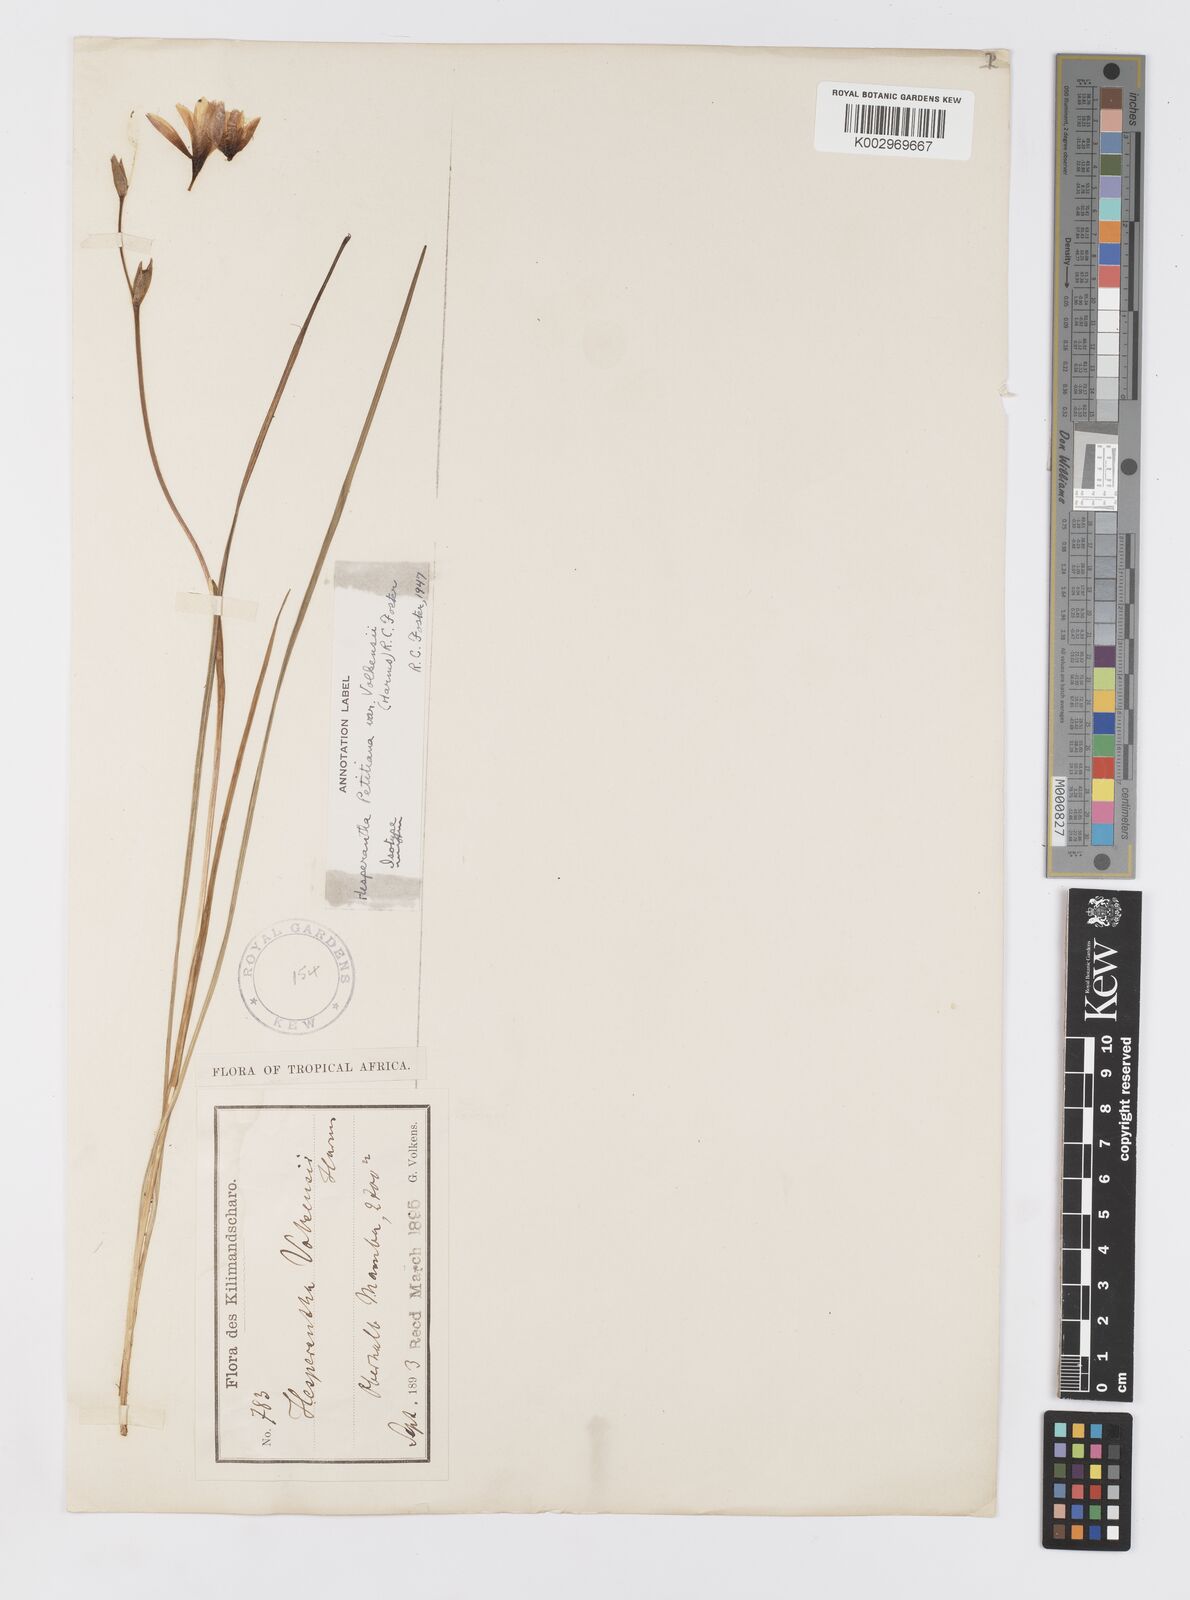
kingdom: Plantae
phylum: Tracheophyta
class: Liliopsida
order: Asparagales
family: Iridaceae
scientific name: Iridaceae
